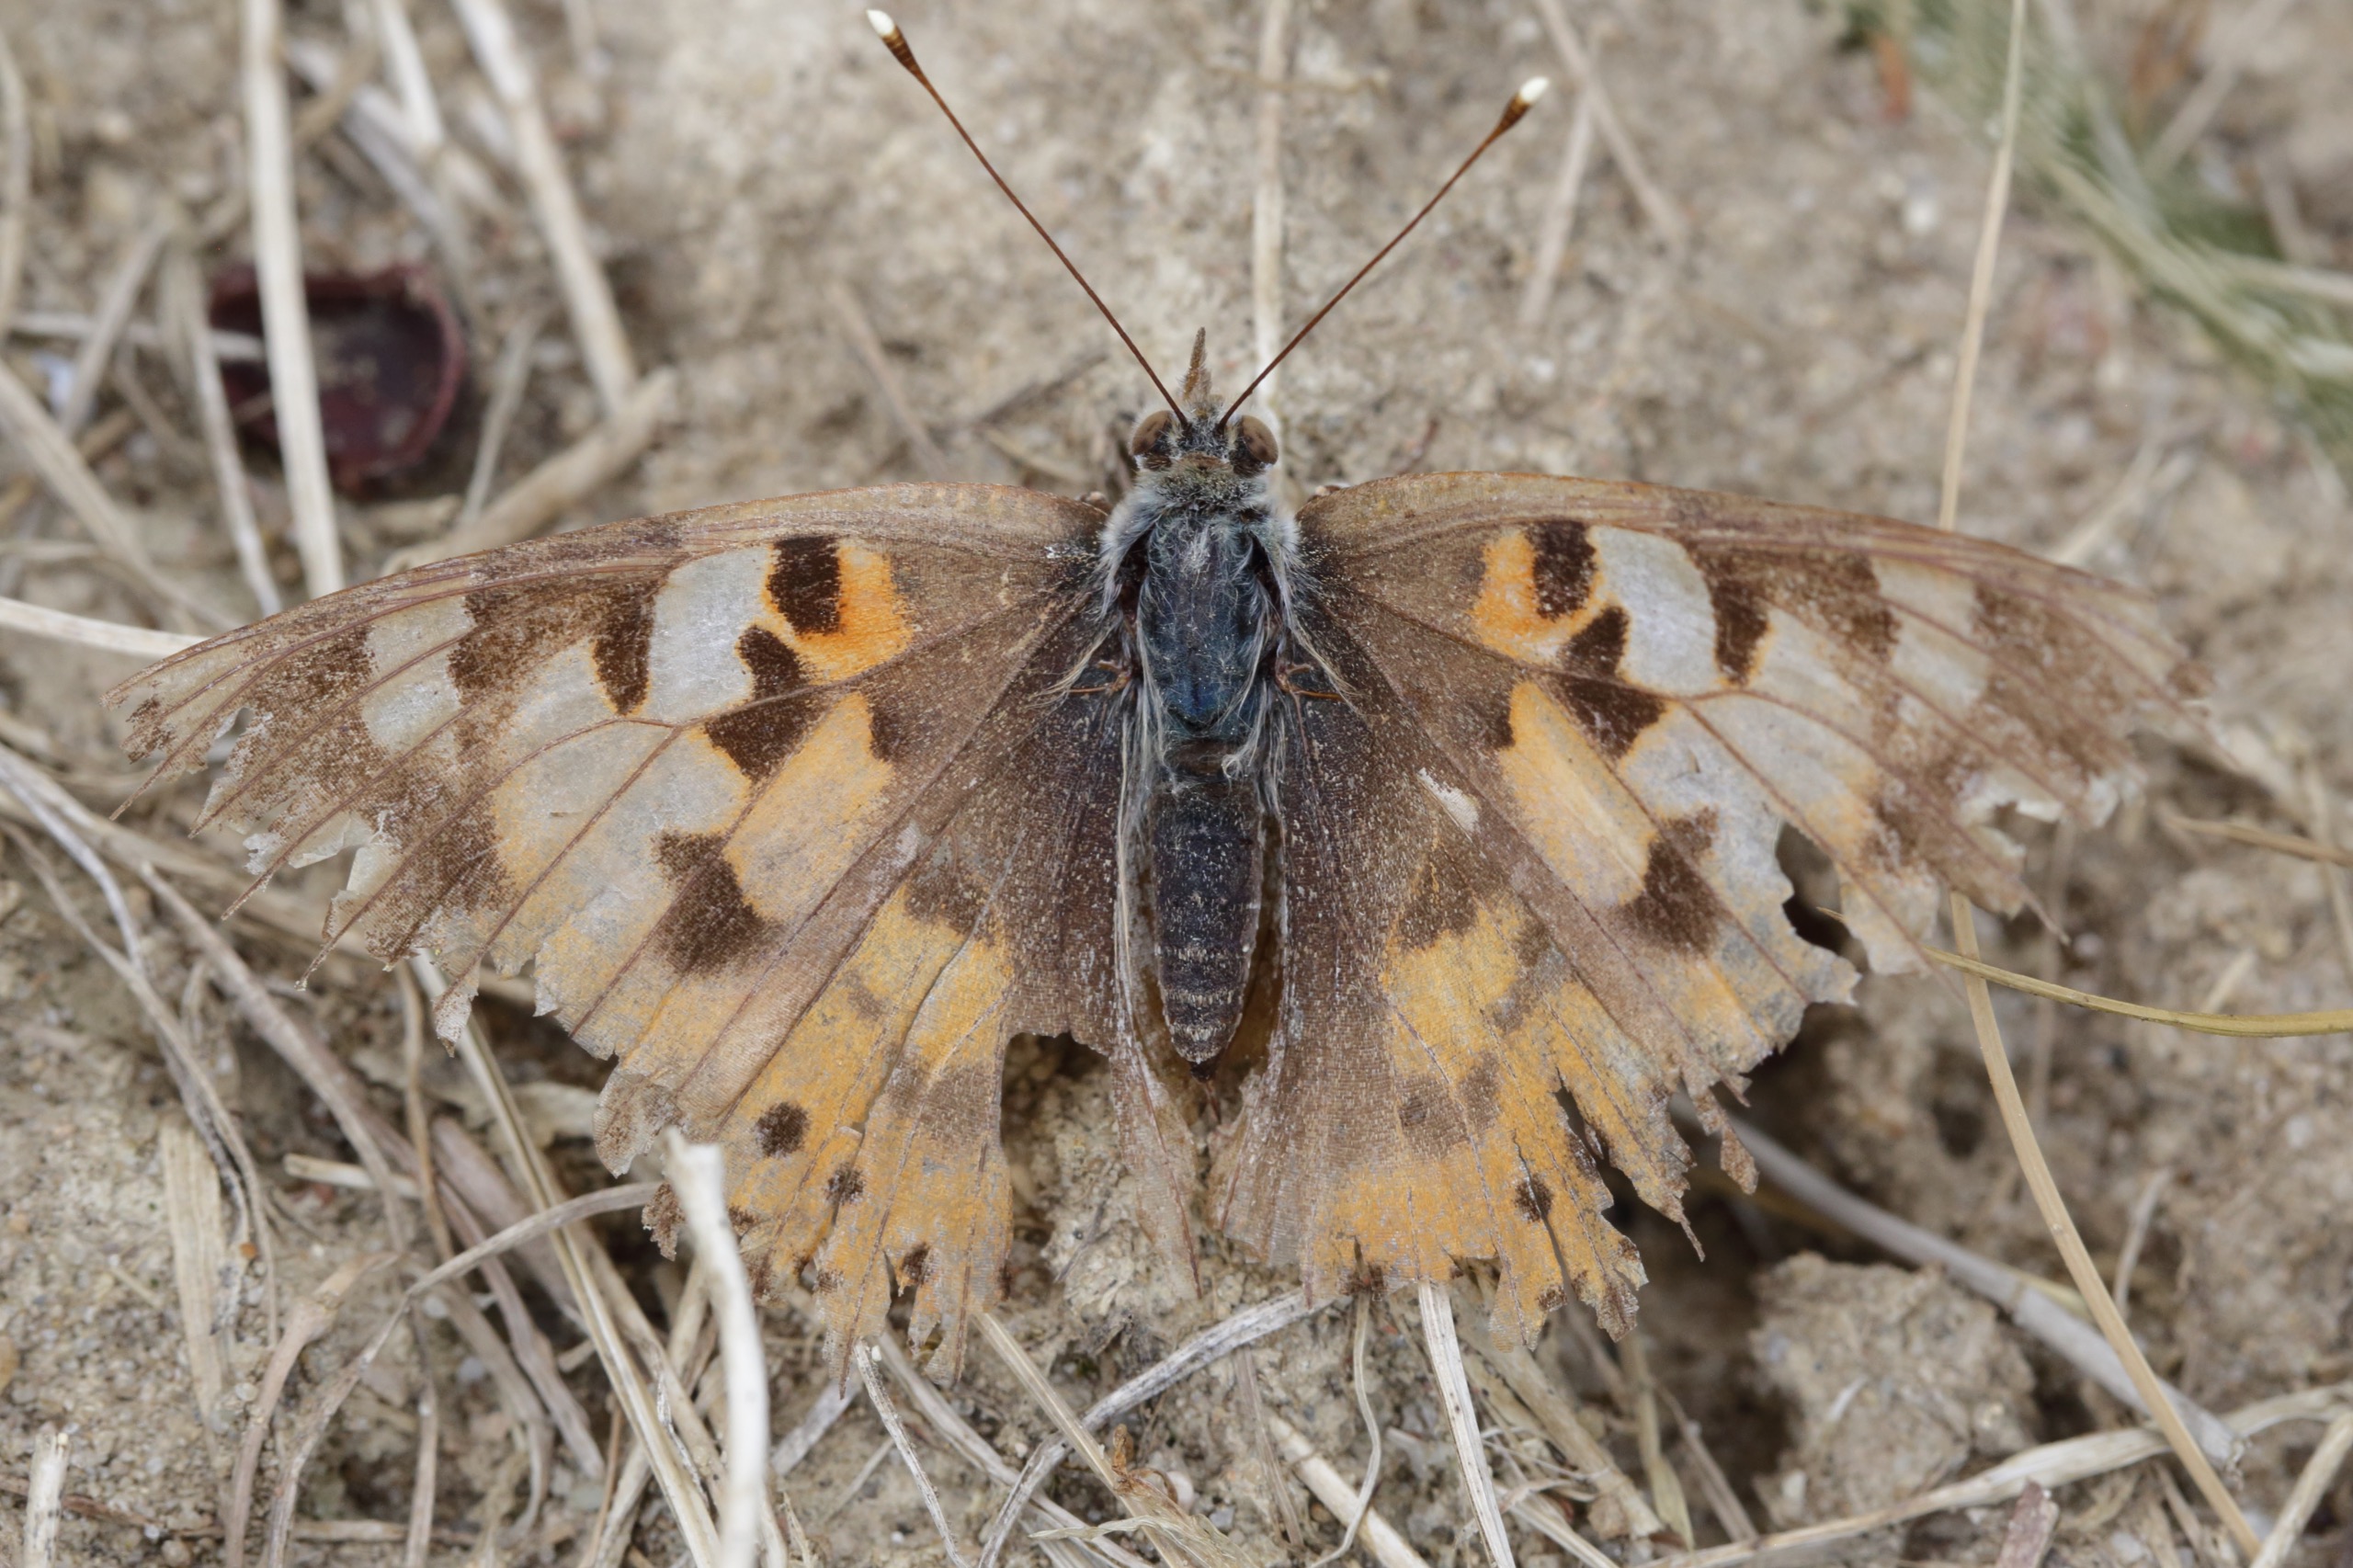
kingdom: Animalia
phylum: Arthropoda
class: Insecta
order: Lepidoptera
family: Nymphalidae
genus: Vanessa
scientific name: Vanessa cardui
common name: Tidselsommerfugl
